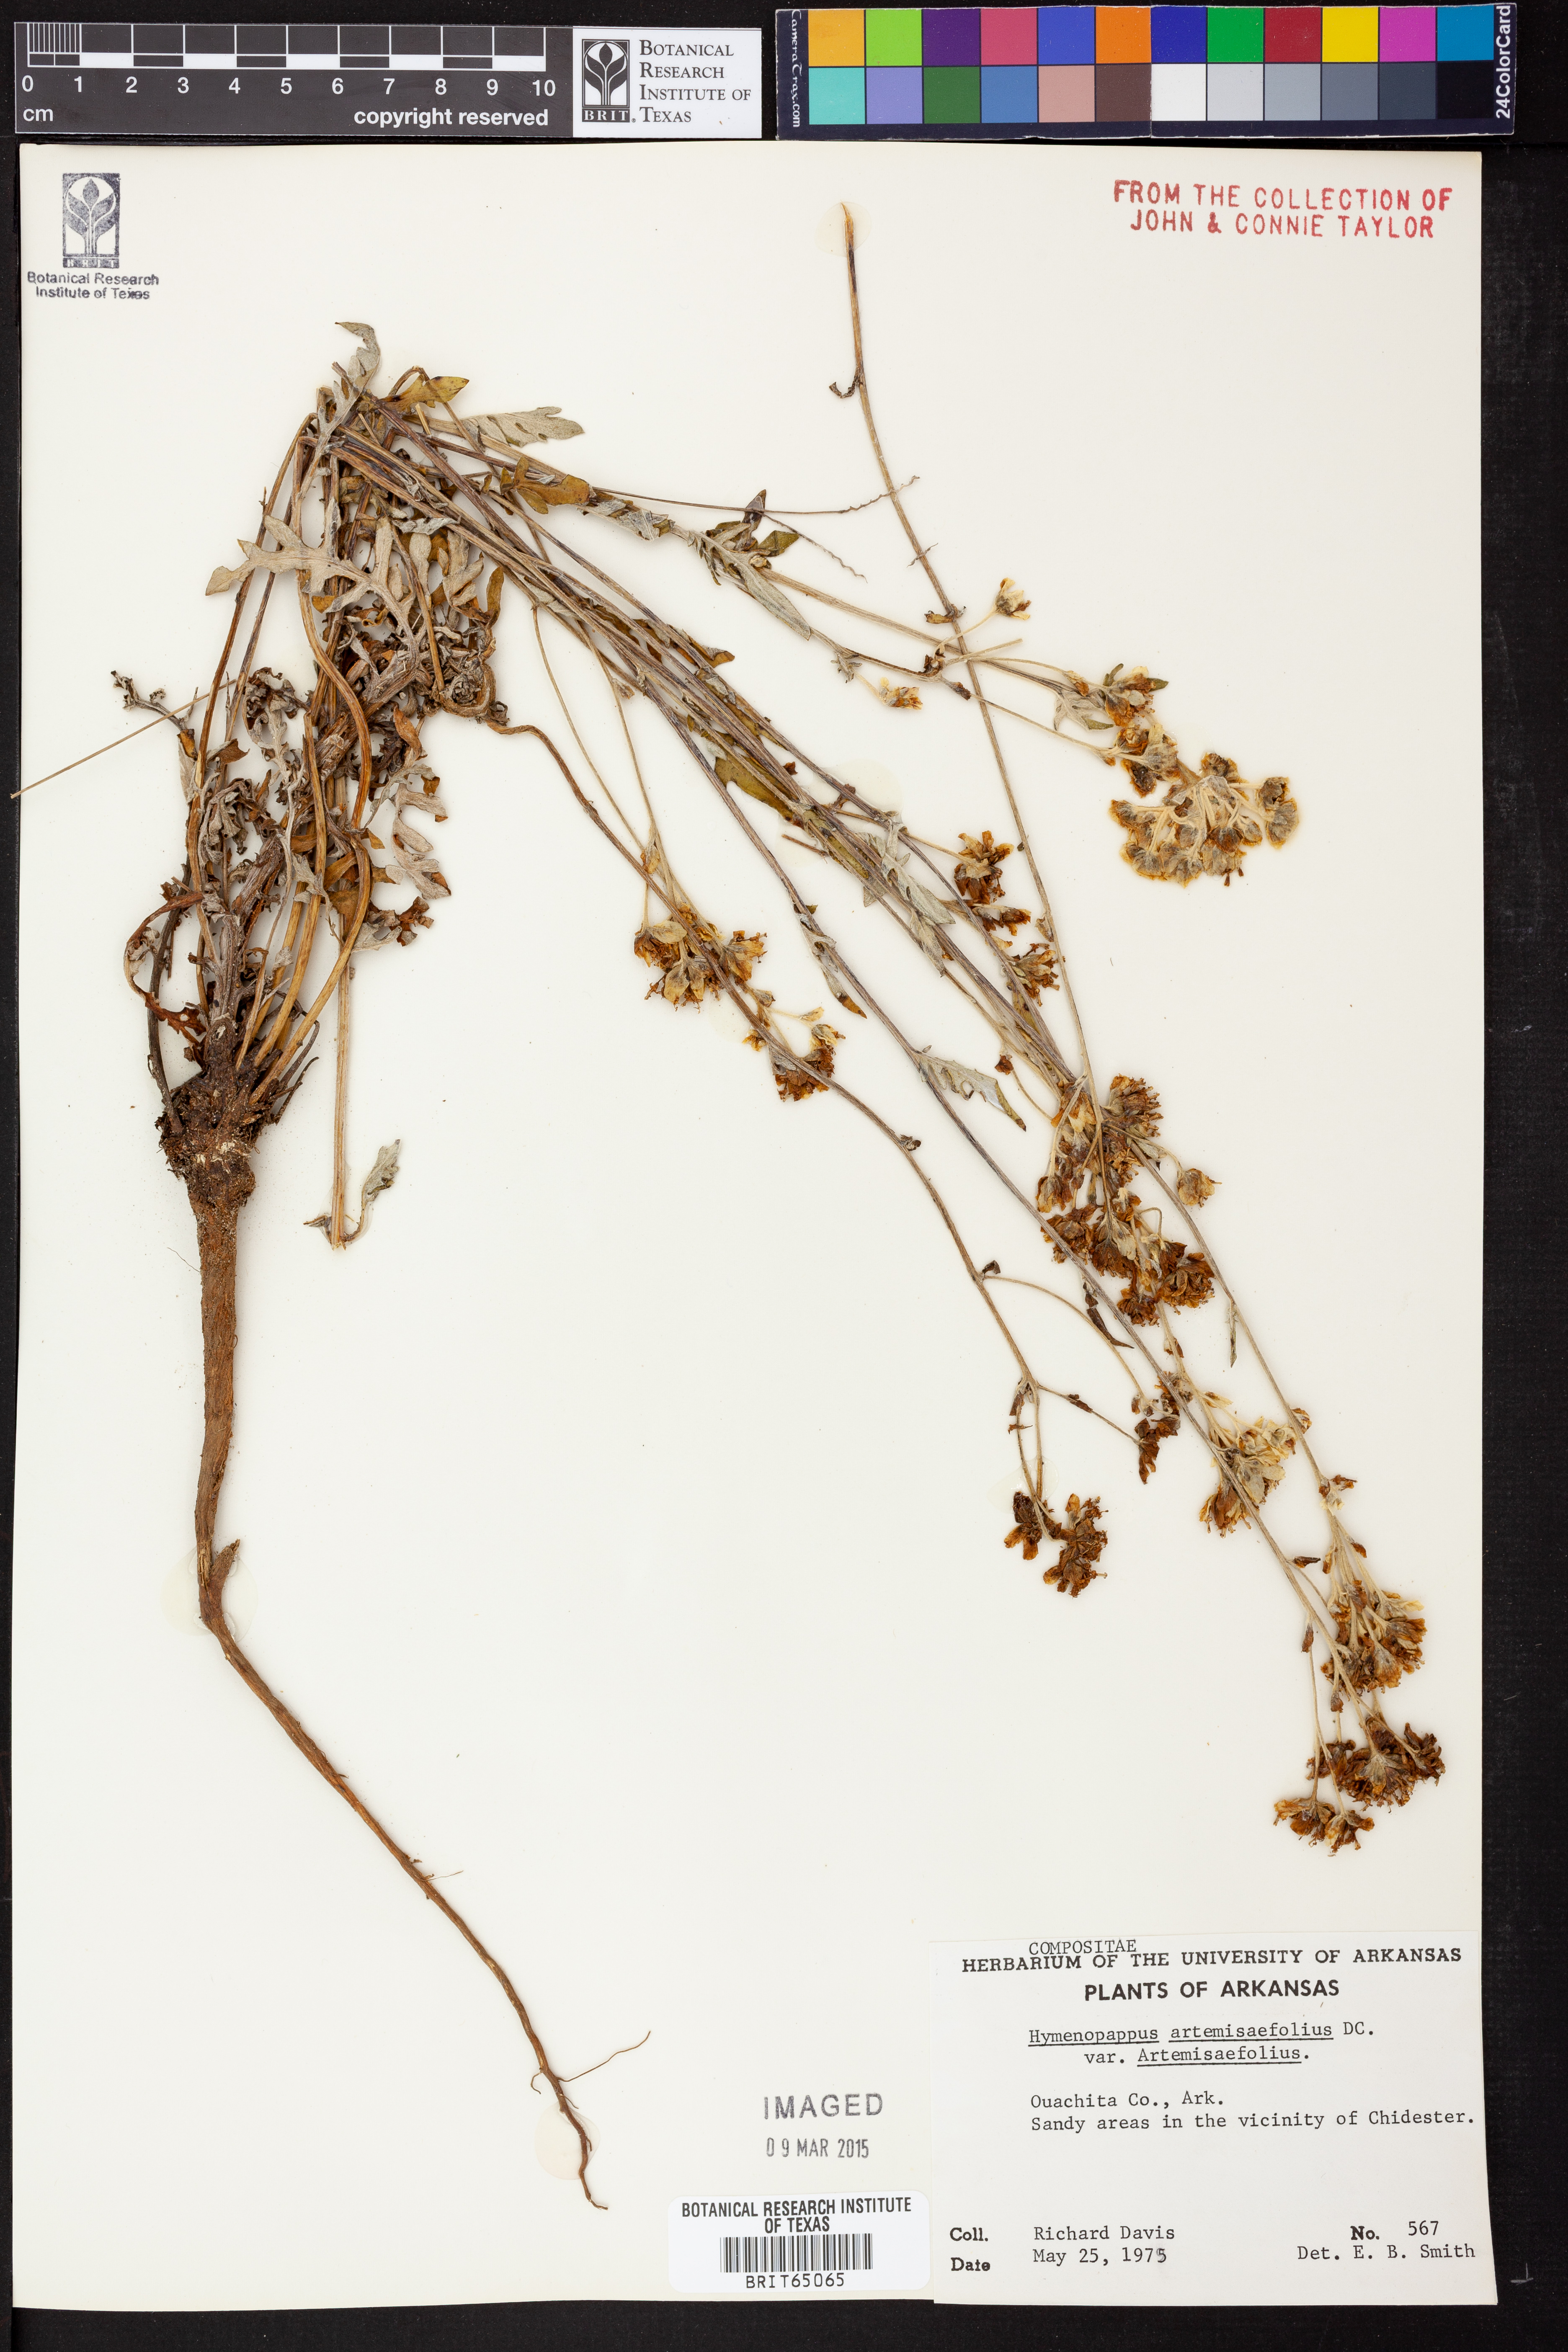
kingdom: Plantae
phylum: Tracheophyta
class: Magnoliopsida
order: Asterales
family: Asteraceae
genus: Hymenopappus
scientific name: Hymenopappus artemisiifolius
